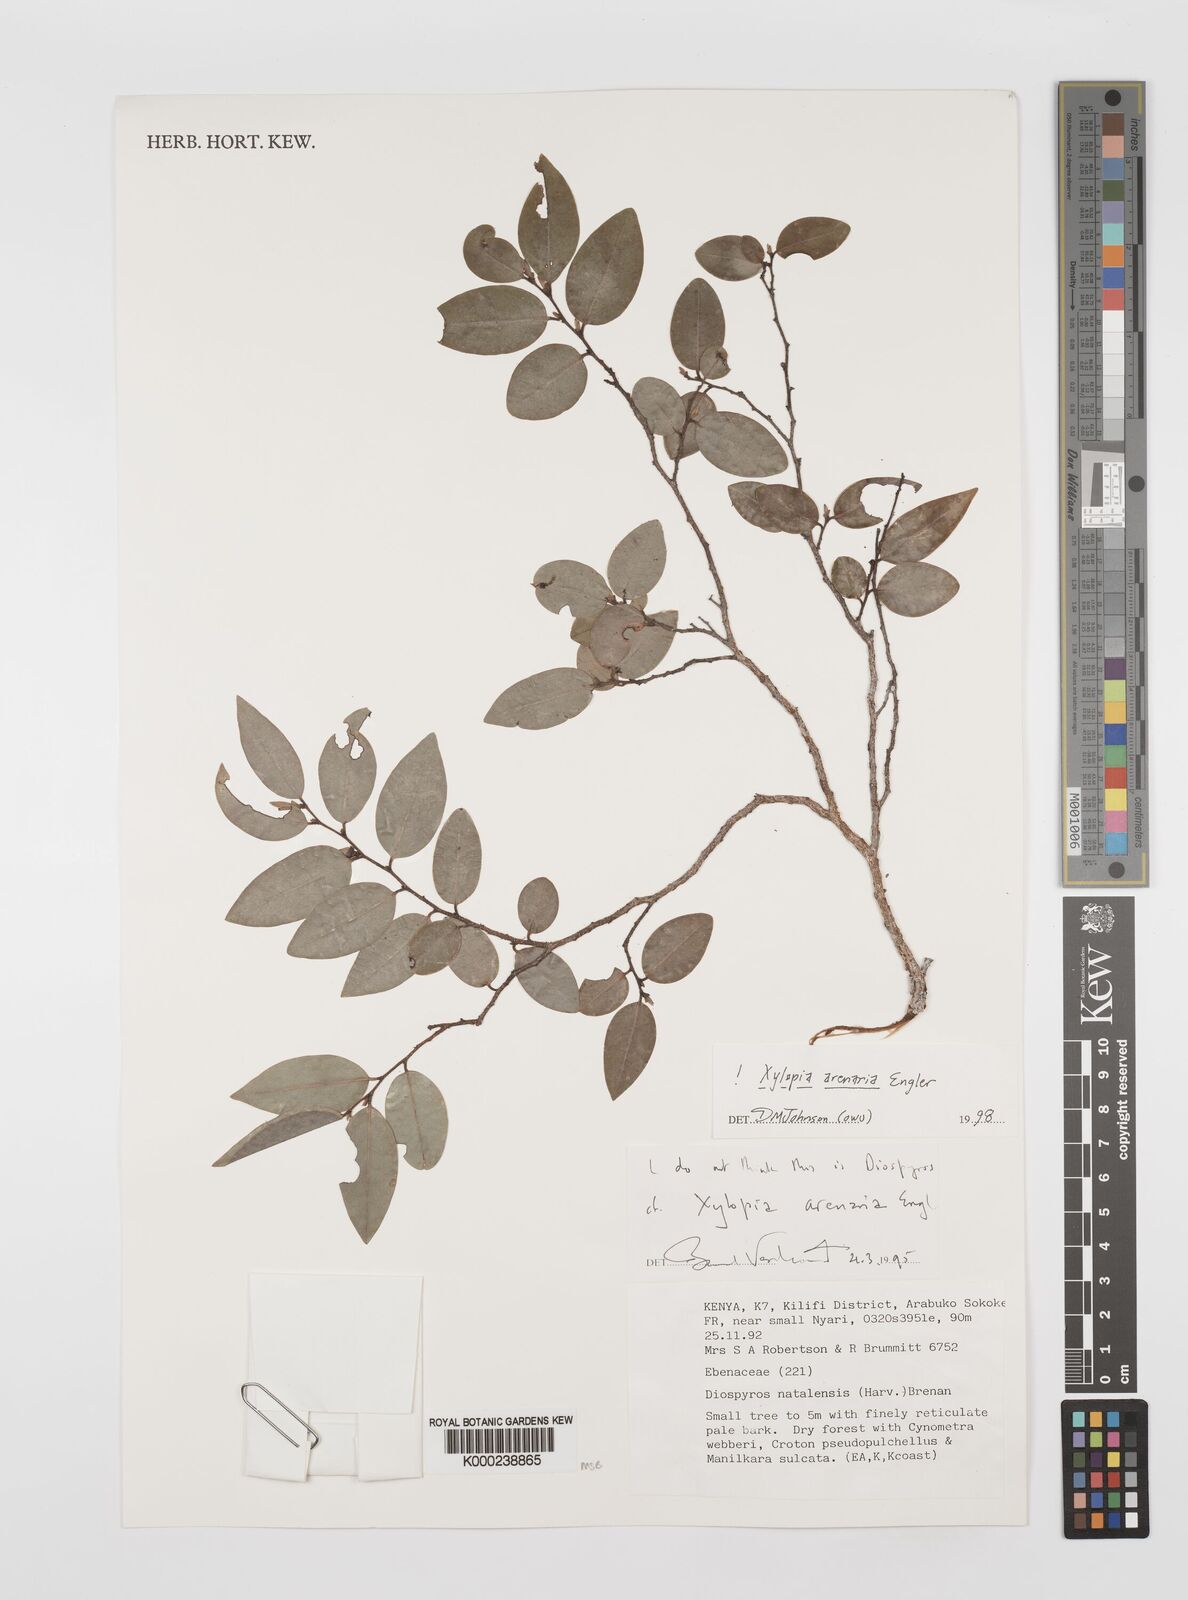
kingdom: Plantae
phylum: Tracheophyta
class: Magnoliopsida
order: Magnoliales
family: Annonaceae
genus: Xylopia
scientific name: Xylopia arenaria
